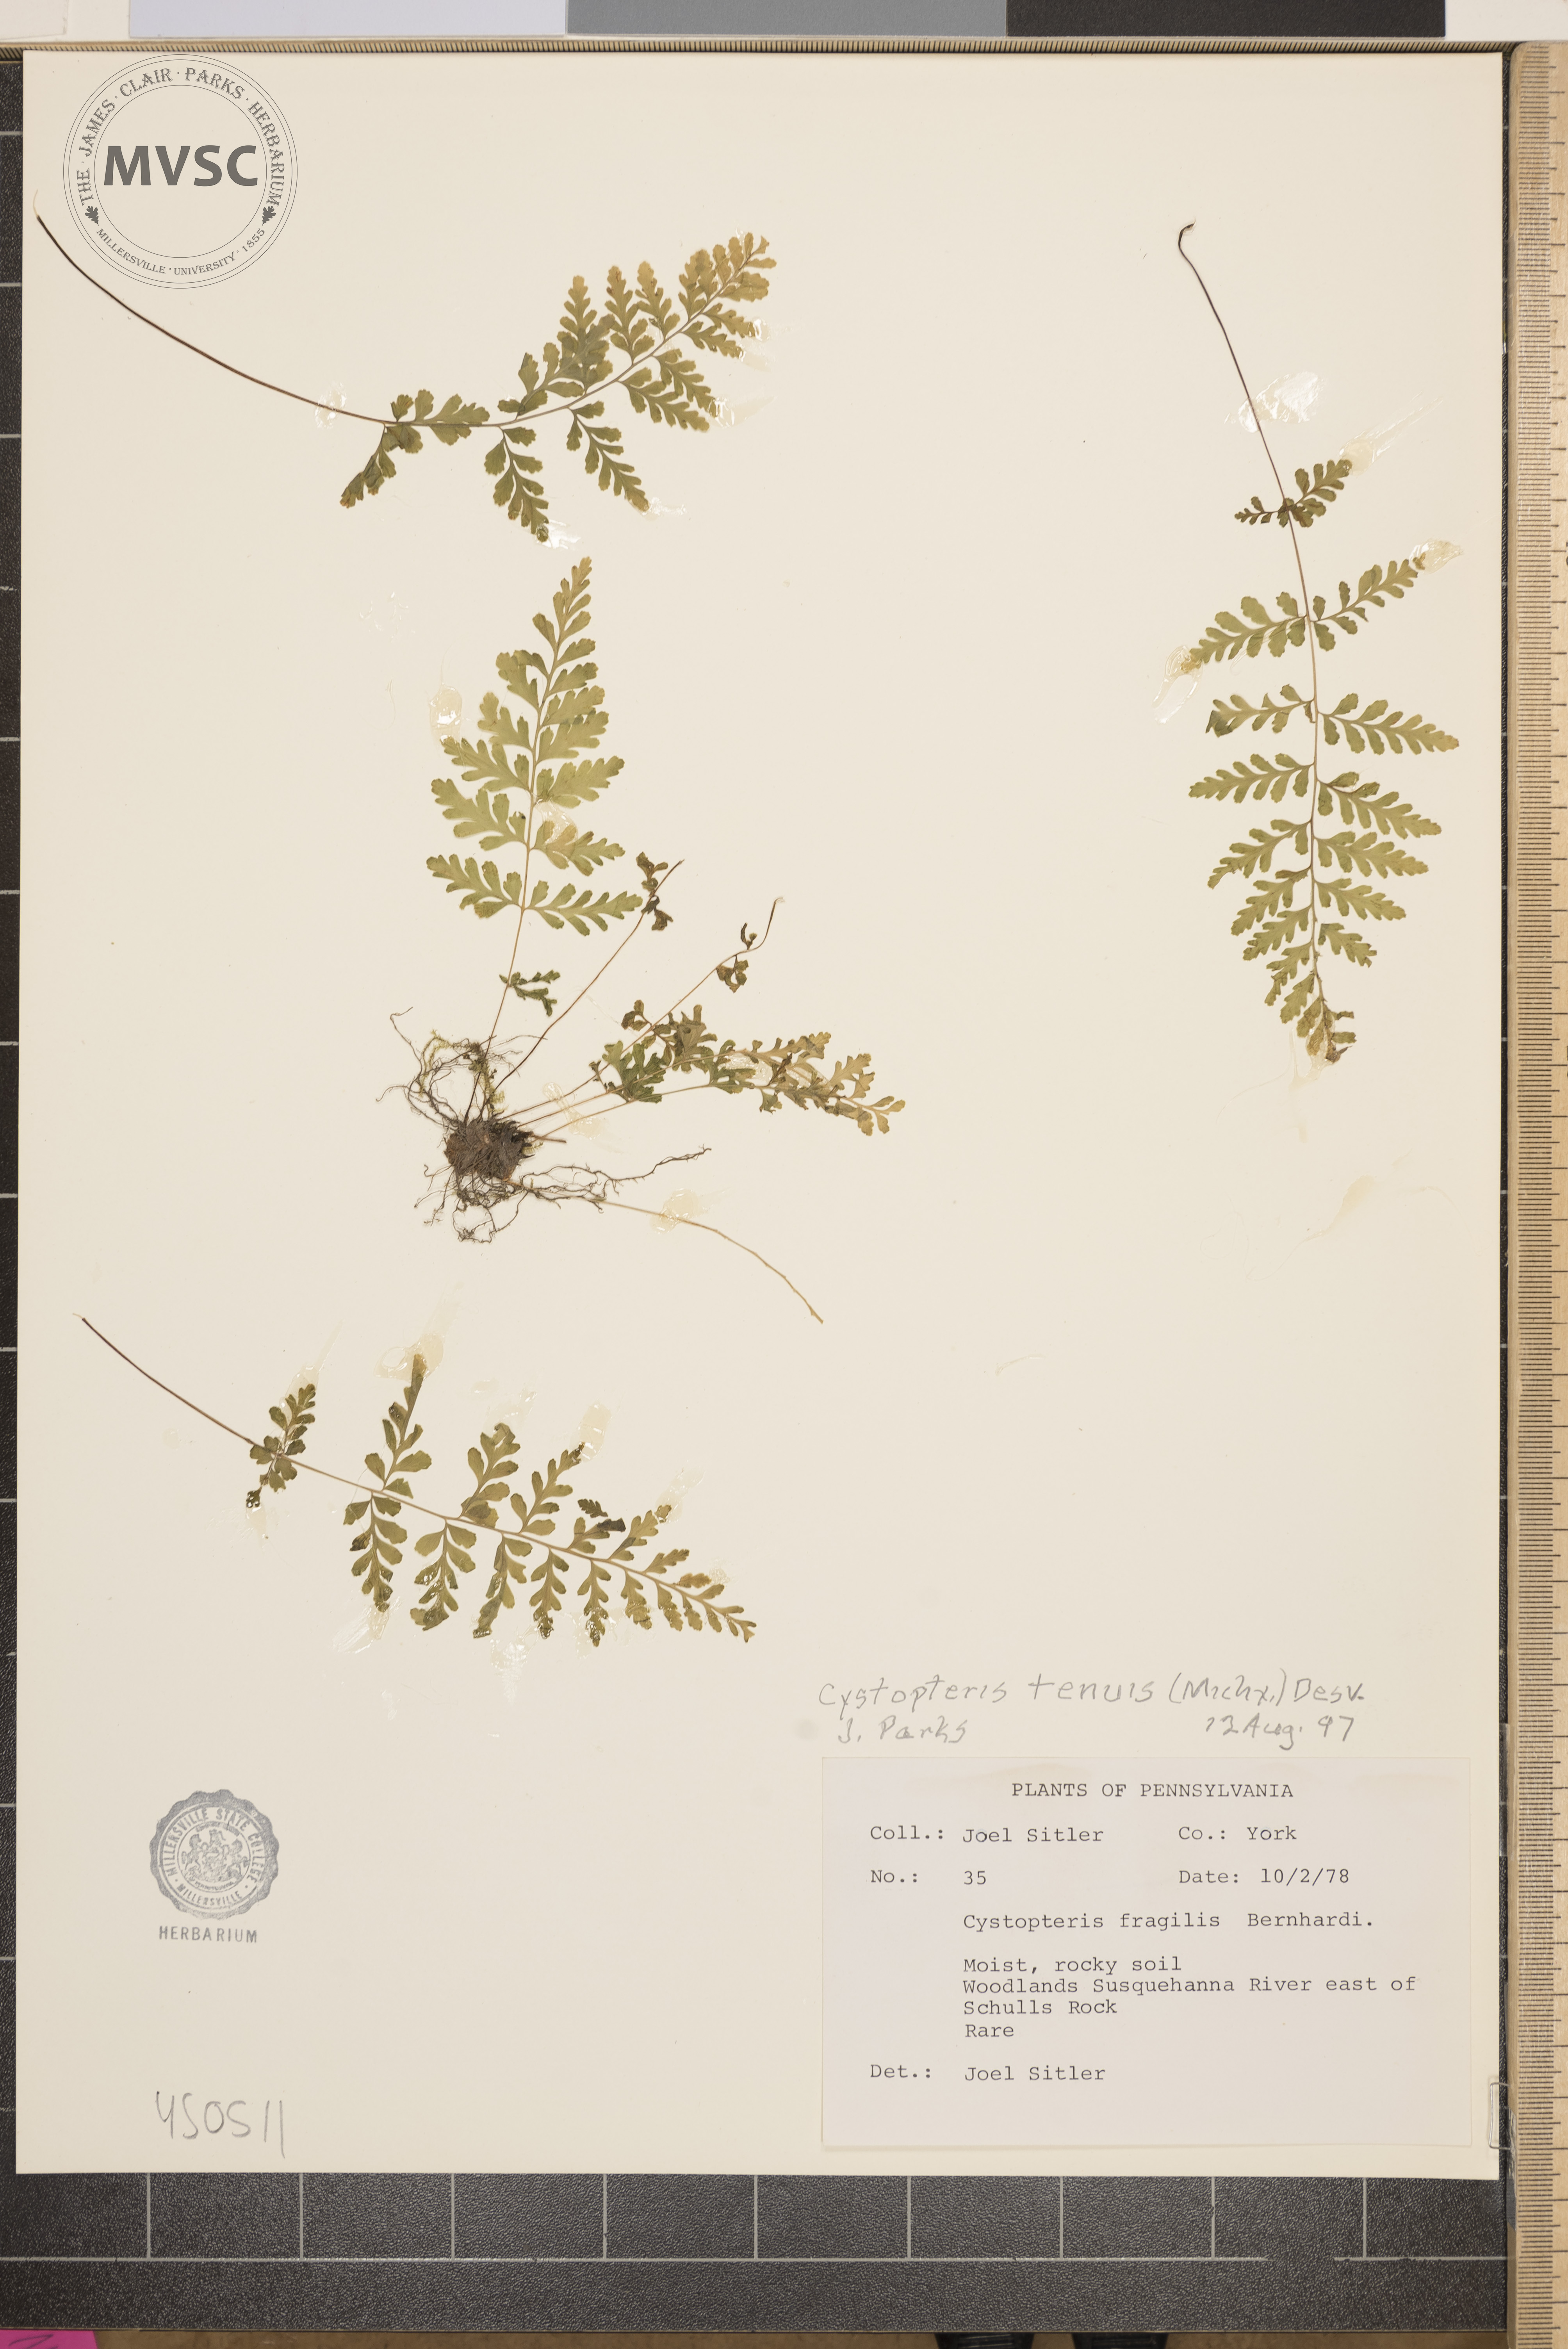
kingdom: Plantae
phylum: Tracheophyta
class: Polypodiopsida
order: Polypodiales
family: Cystopteridaceae
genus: Cystopteris
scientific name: Cystopteris tenuis
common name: Mackay's brittle fern
